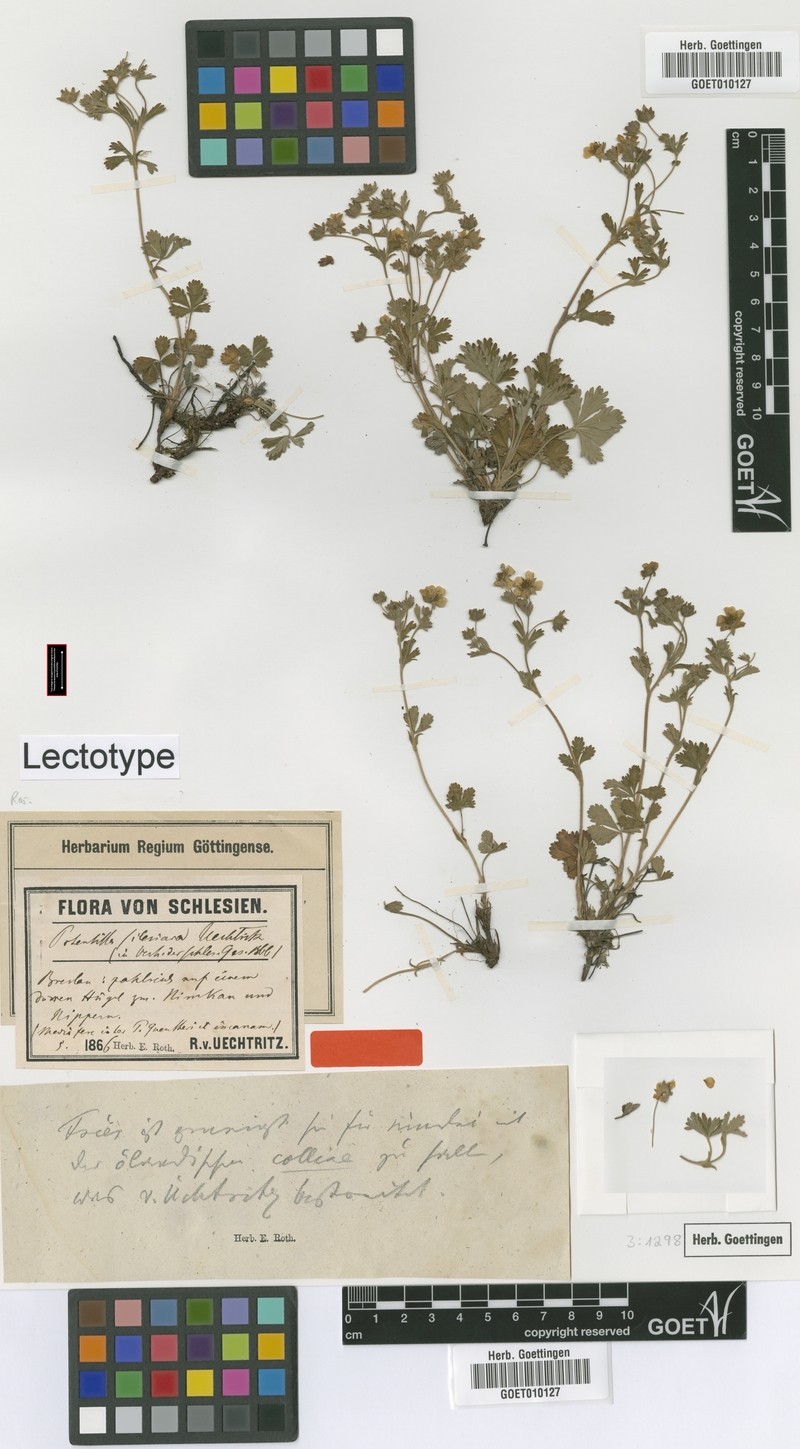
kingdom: Plantae
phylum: Tracheophyta
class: Magnoliopsida
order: Rosales
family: Rosaceae
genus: Potentilla
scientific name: Potentilla silesiaca
